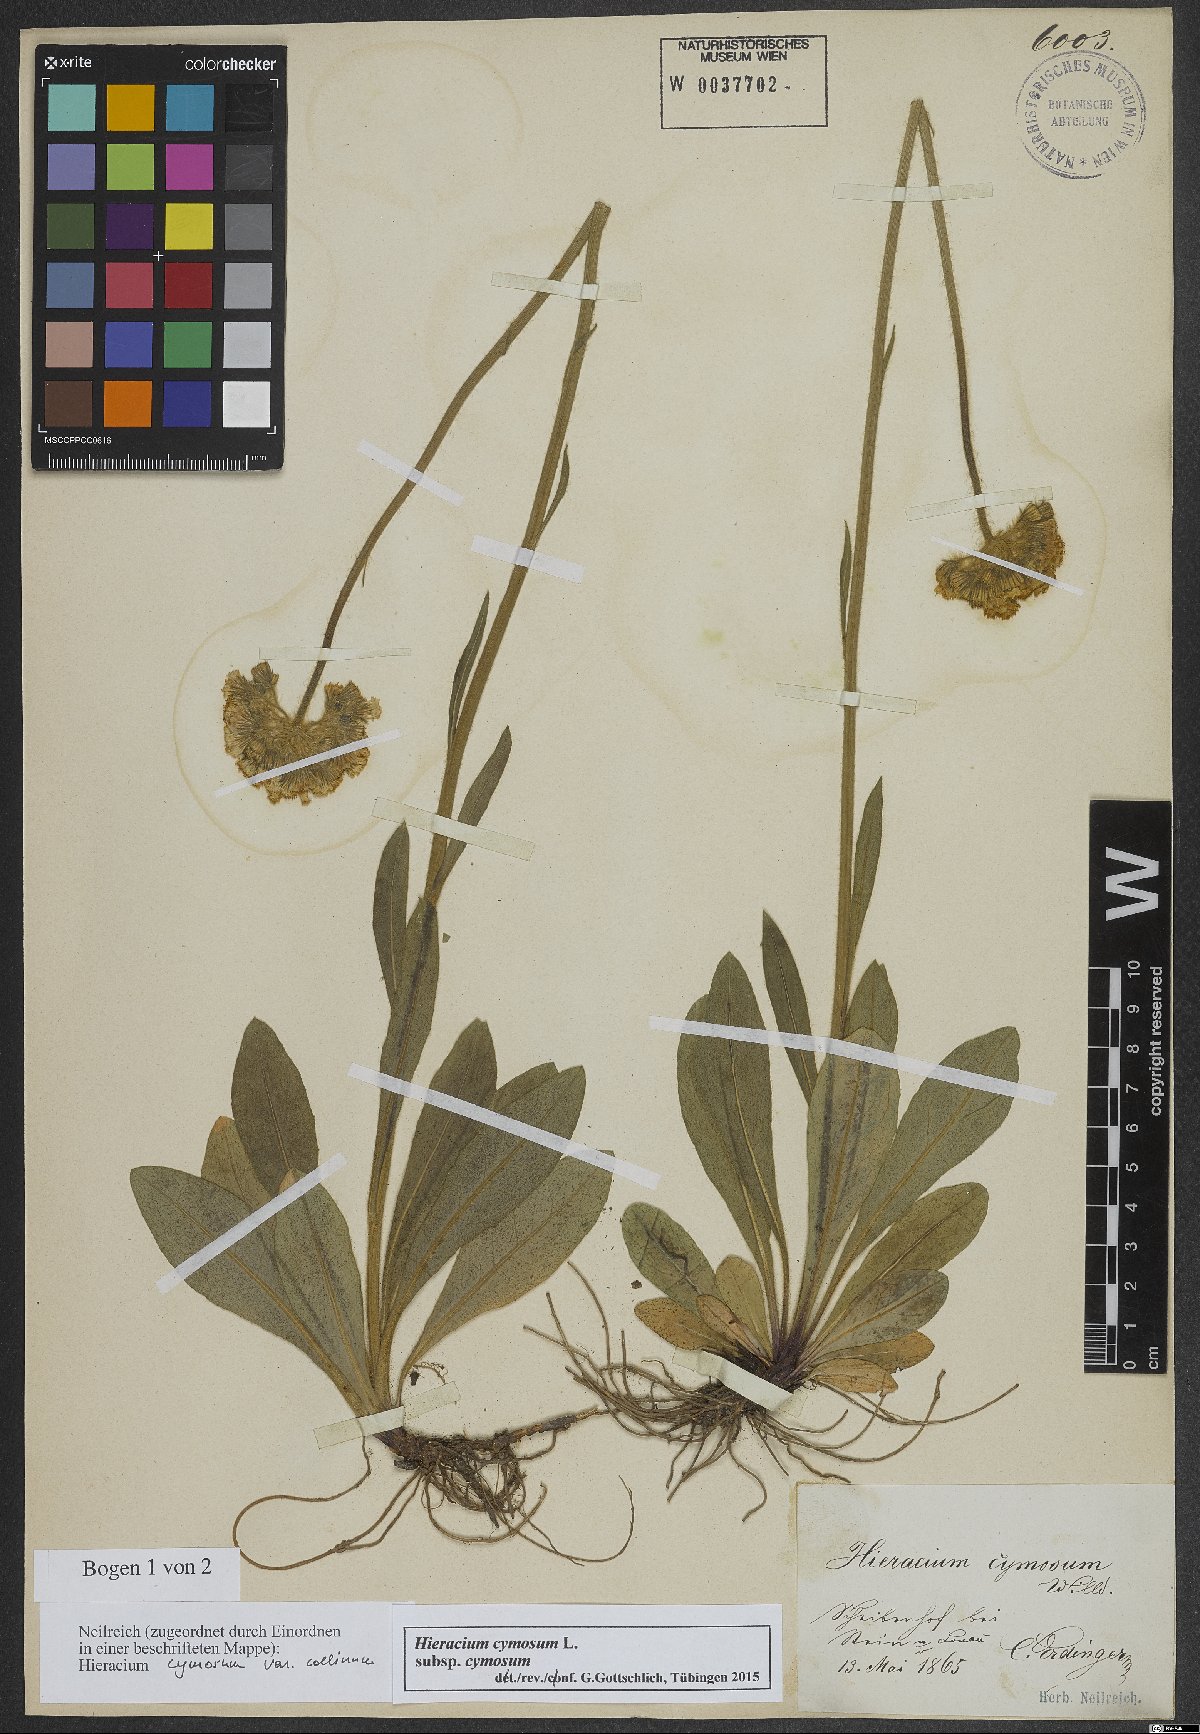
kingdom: Plantae
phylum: Tracheophyta
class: Magnoliopsida
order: Asterales
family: Asteraceae
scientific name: Asteraceae
